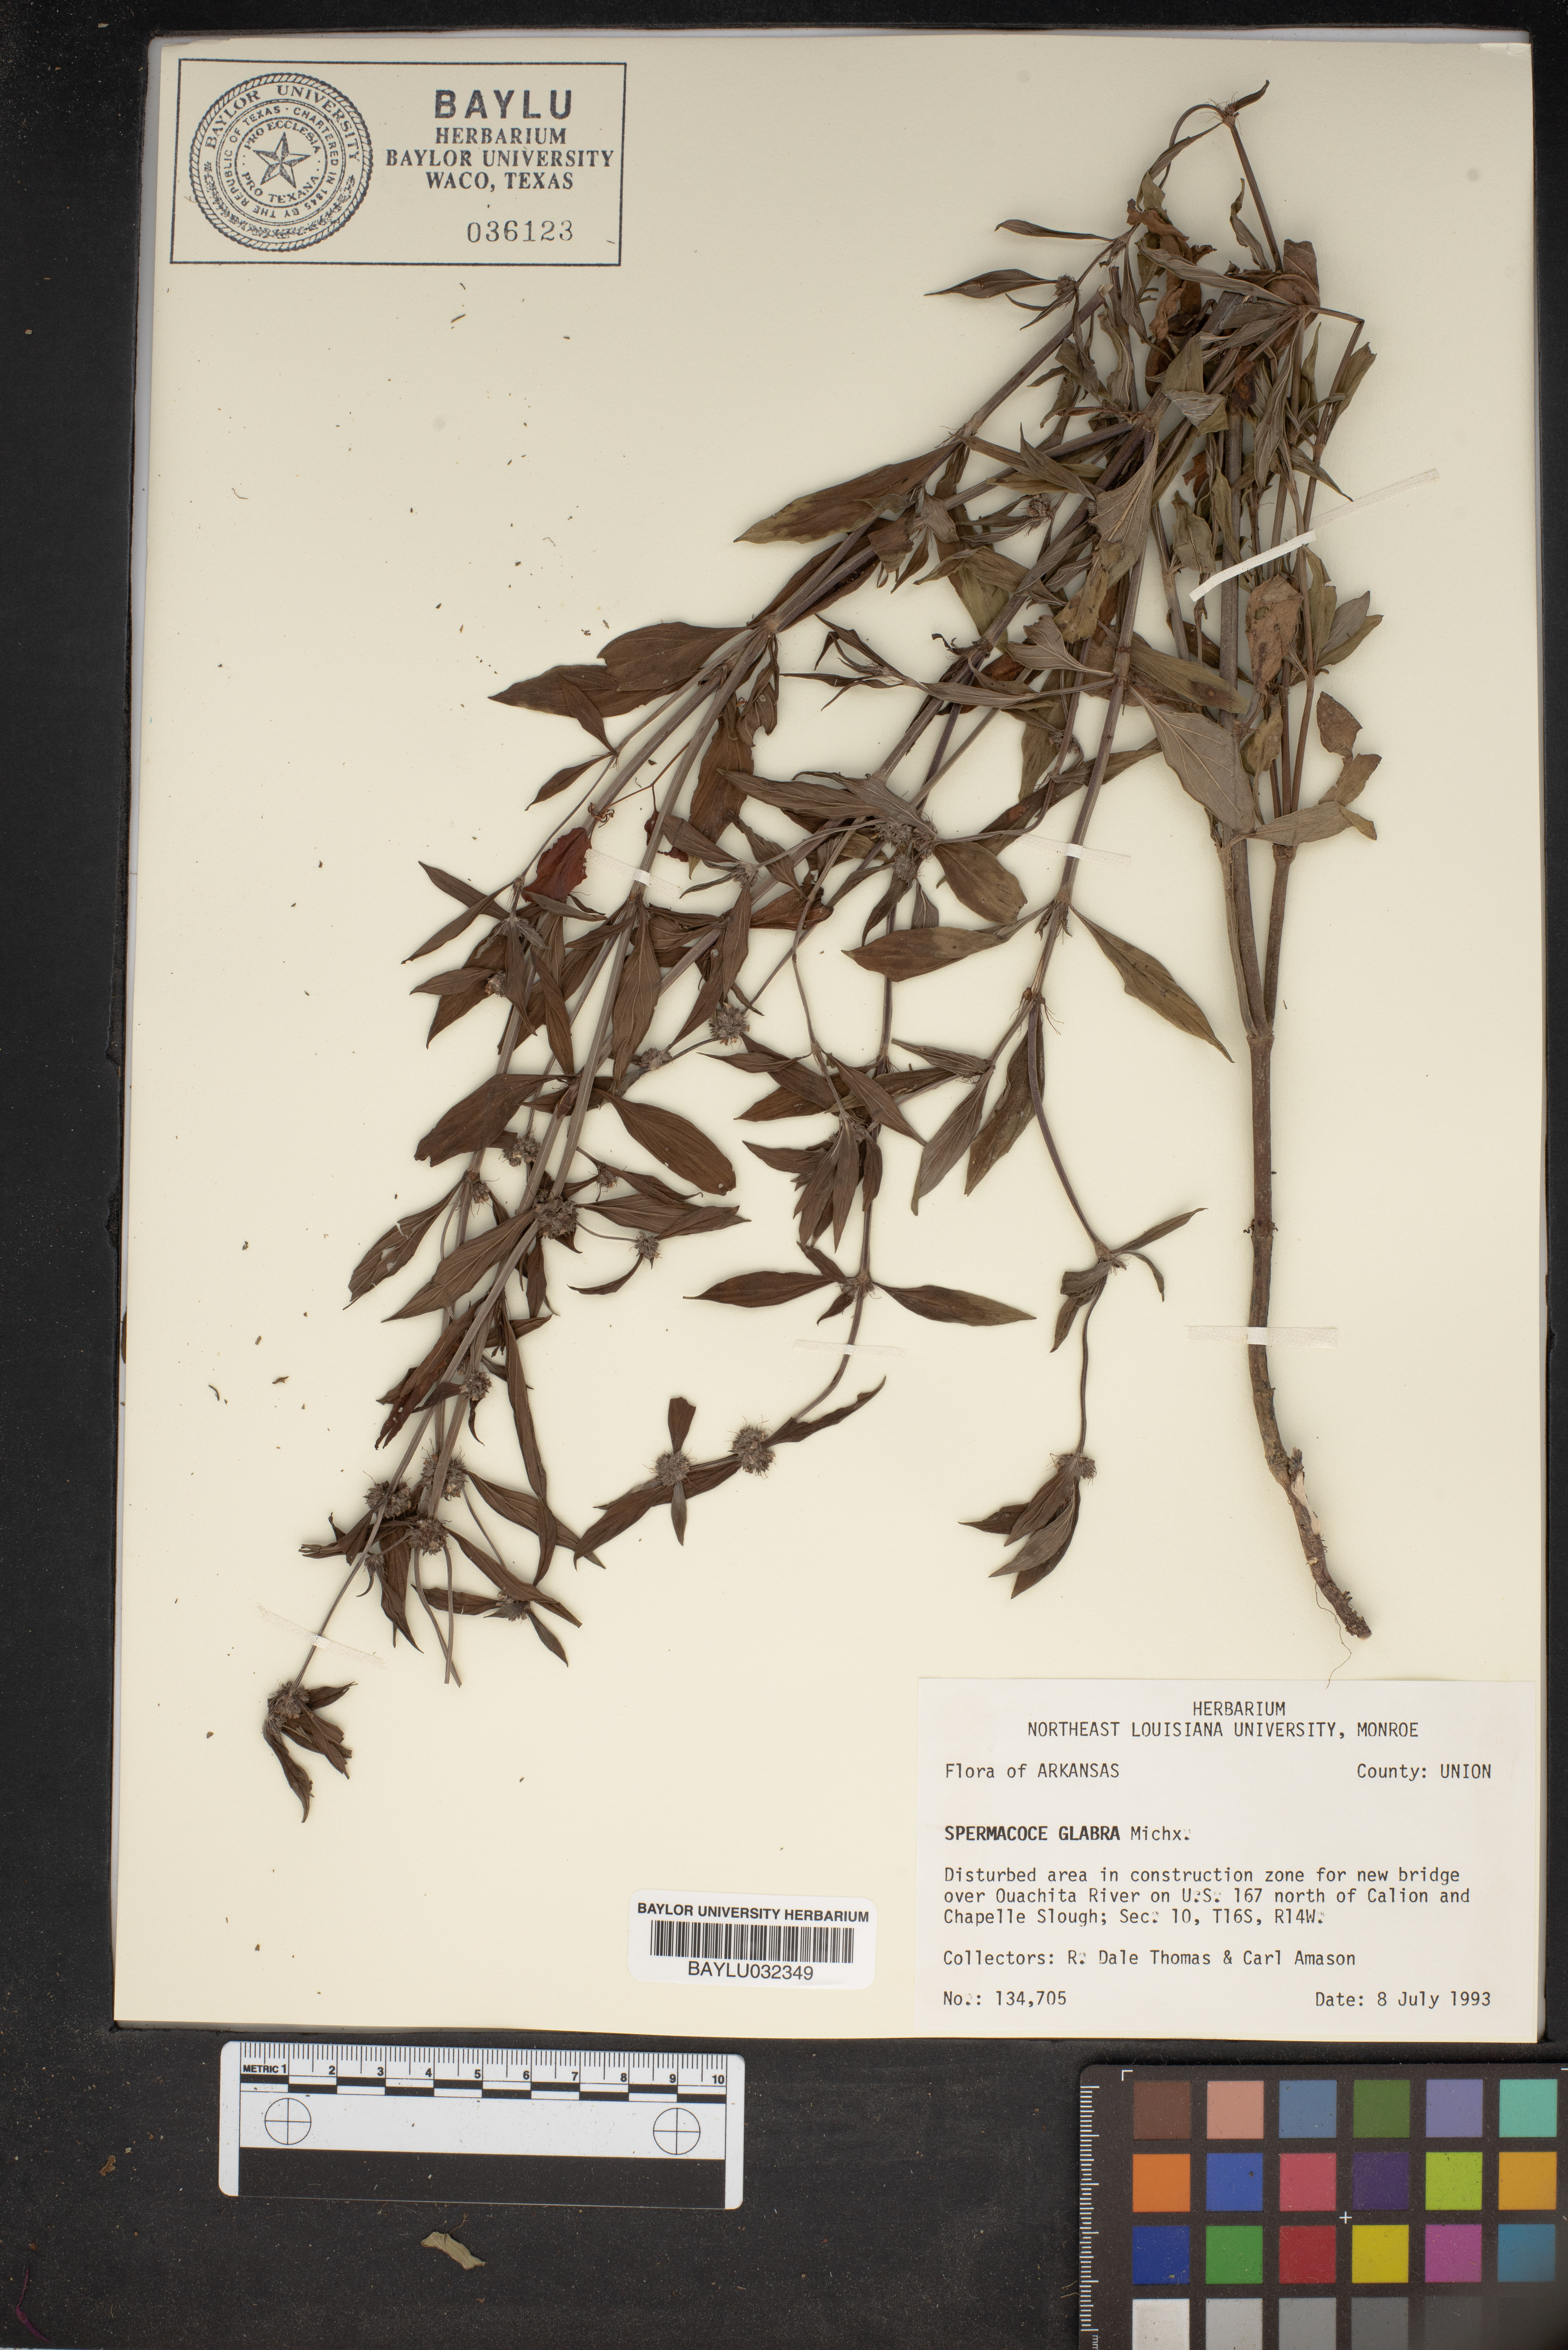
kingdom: Plantae
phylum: Tracheophyta
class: Magnoliopsida
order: Gentianales
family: Rubiaceae
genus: Spermacoce
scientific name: Spermacoce glabra
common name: Smooth buttonweed
